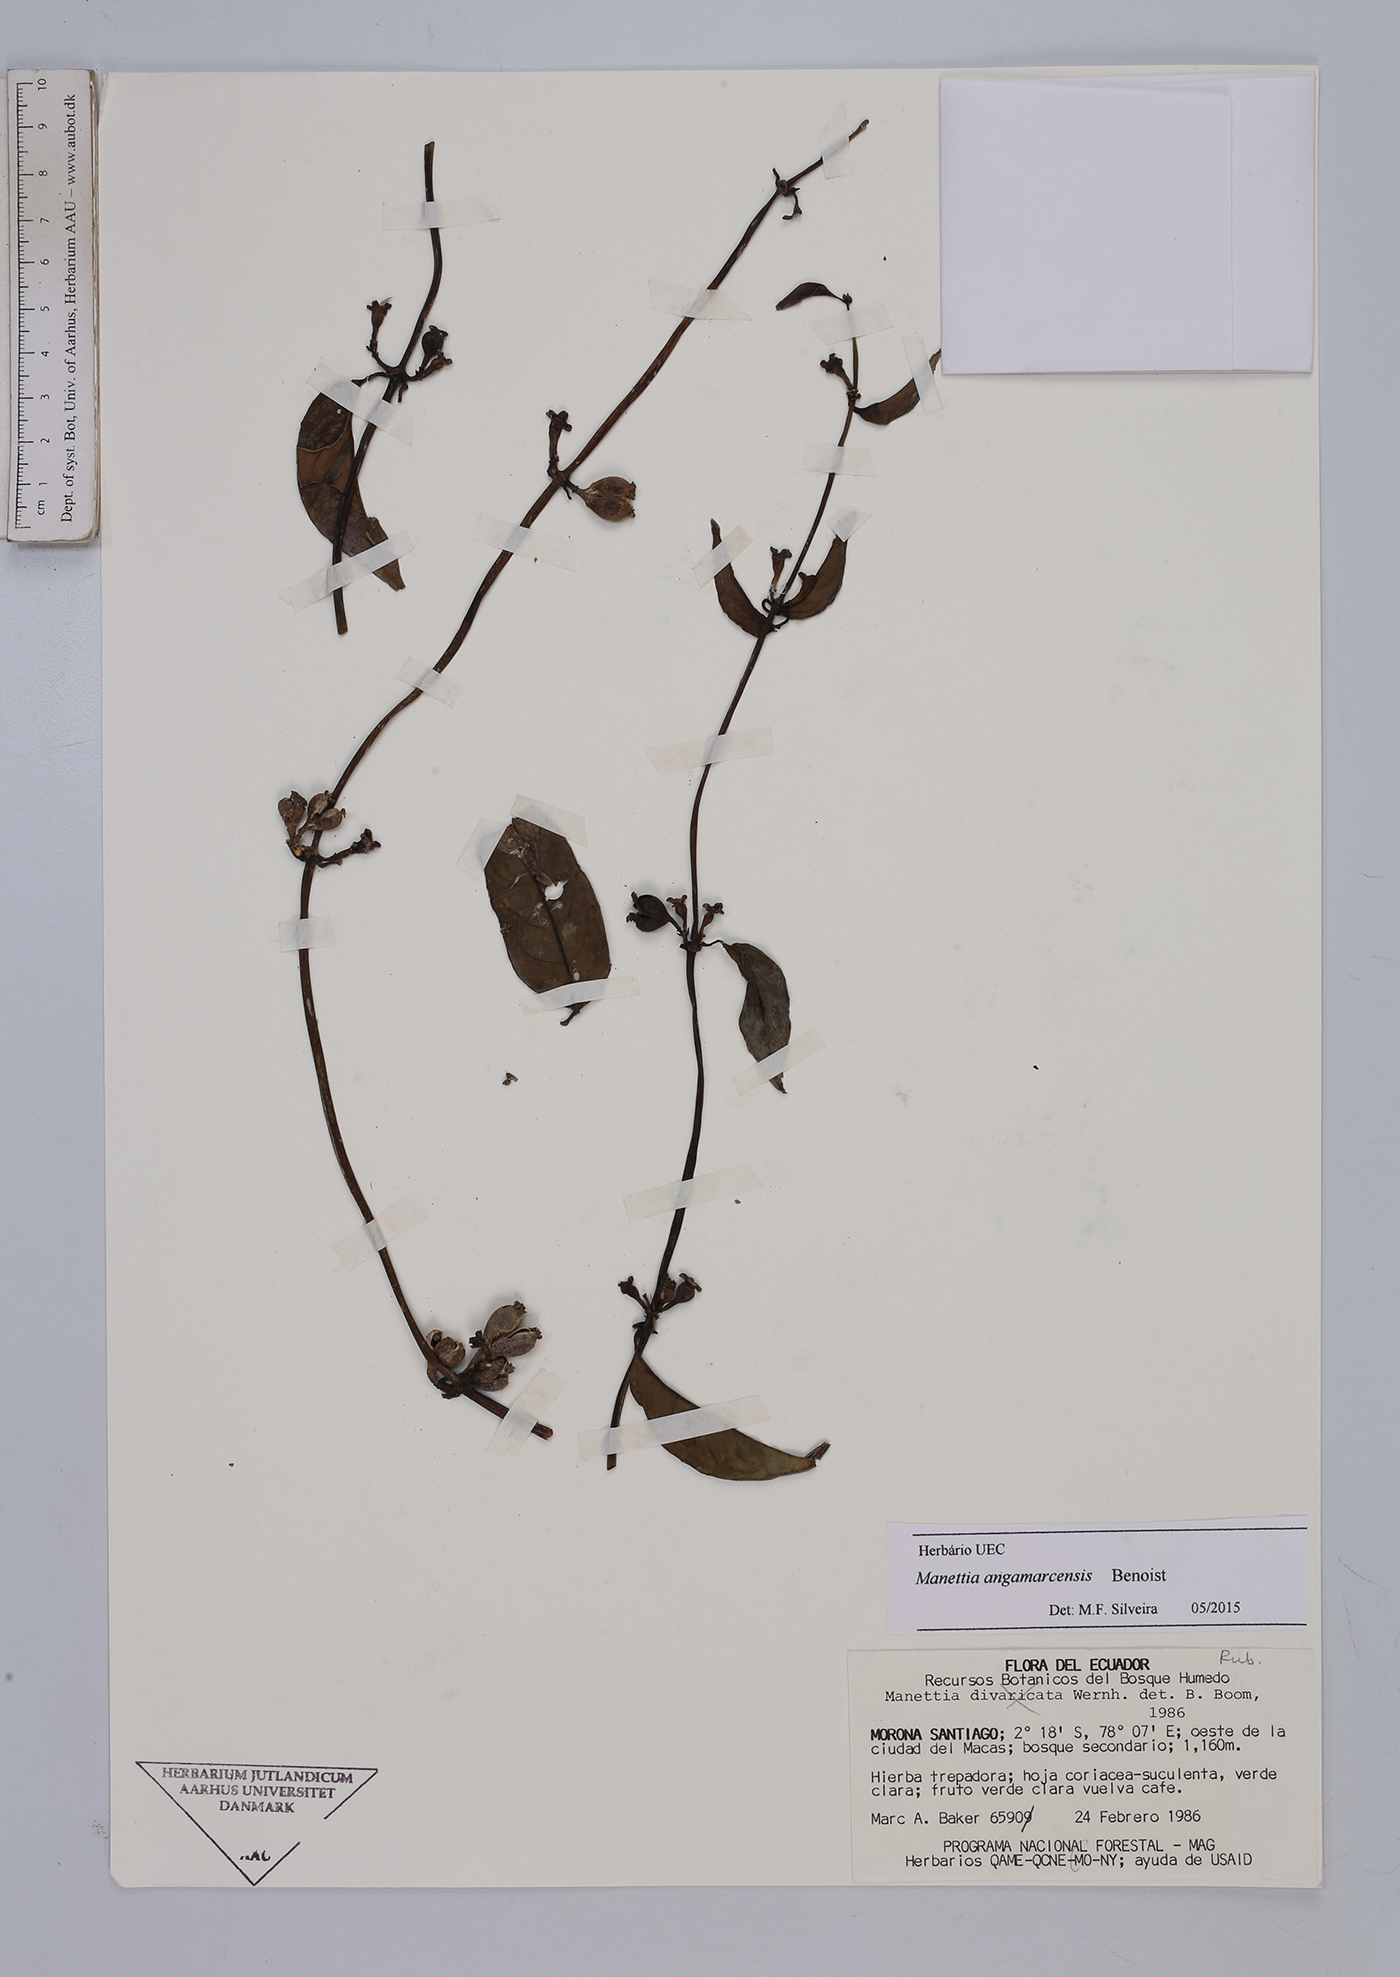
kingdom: Plantae
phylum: Tracheophyta
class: Magnoliopsida
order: Gentianales
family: Rubiaceae
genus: Manettia
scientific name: Manettia angamarcensis
